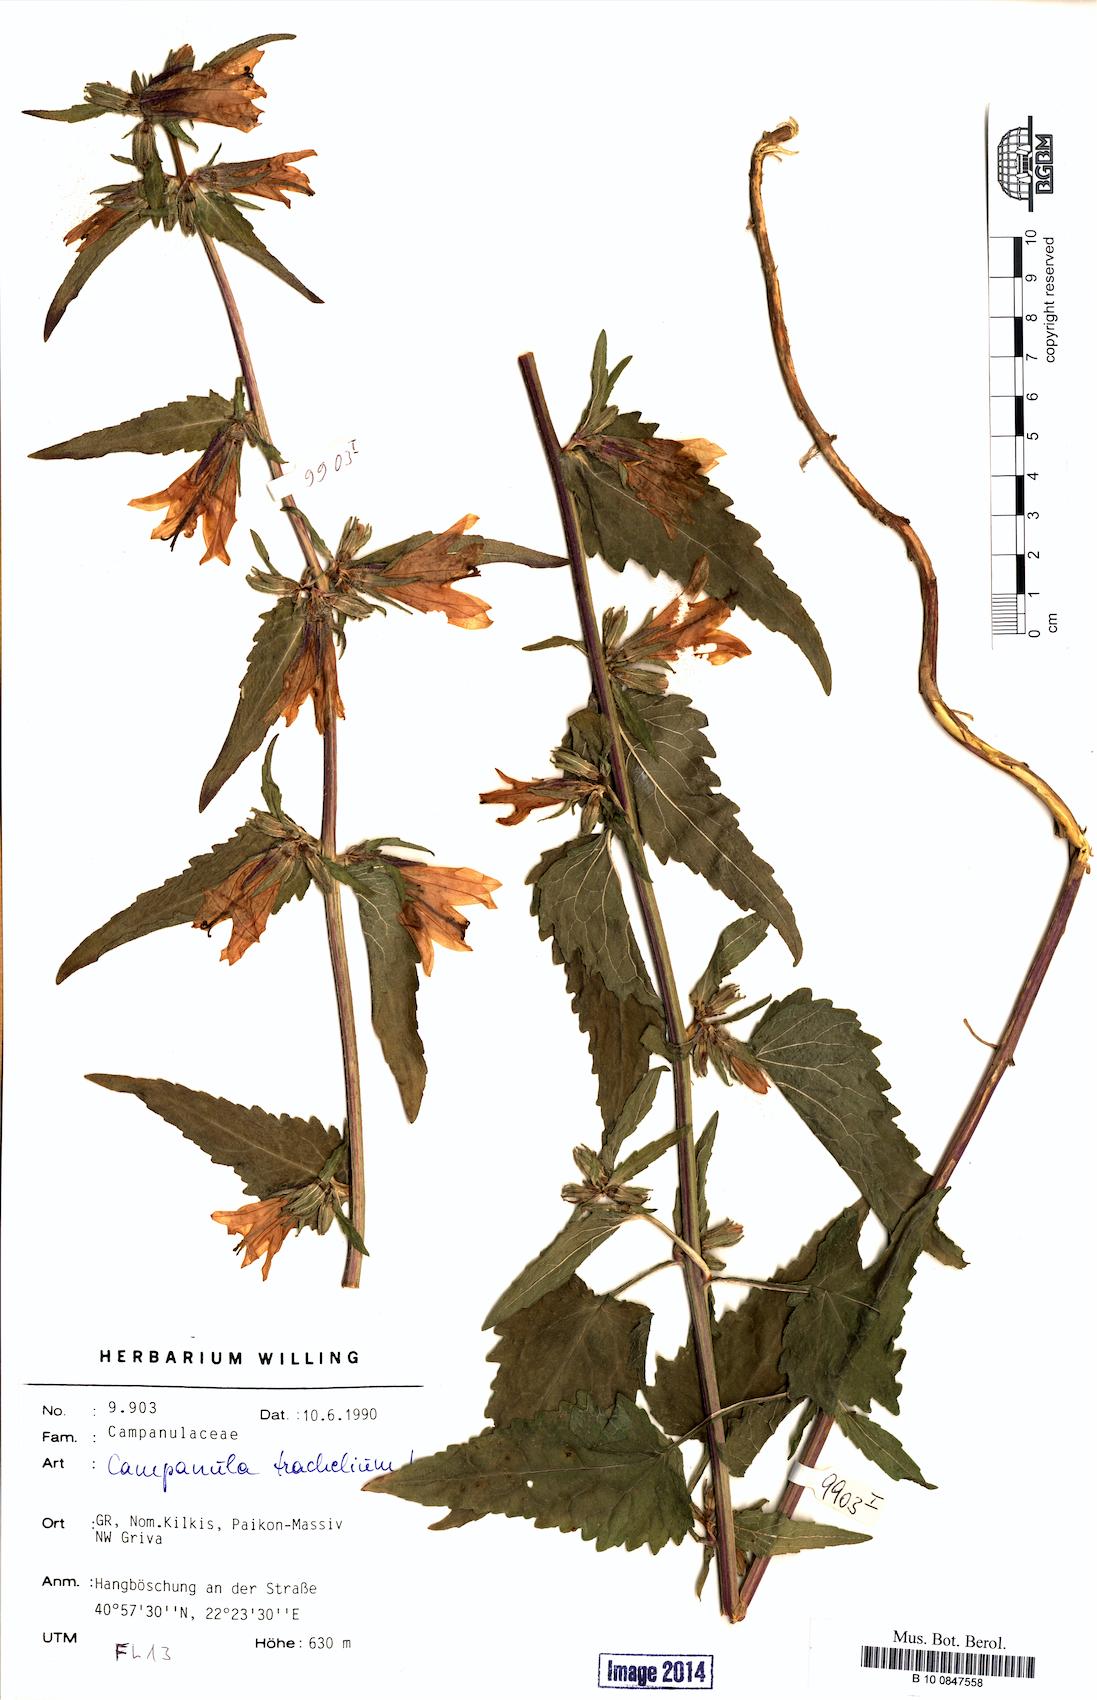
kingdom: Plantae
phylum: Tracheophyta
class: Magnoliopsida
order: Asterales
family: Campanulaceae
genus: Campanula
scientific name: Campanula trachelium
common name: Nettle-leaved bellflower
